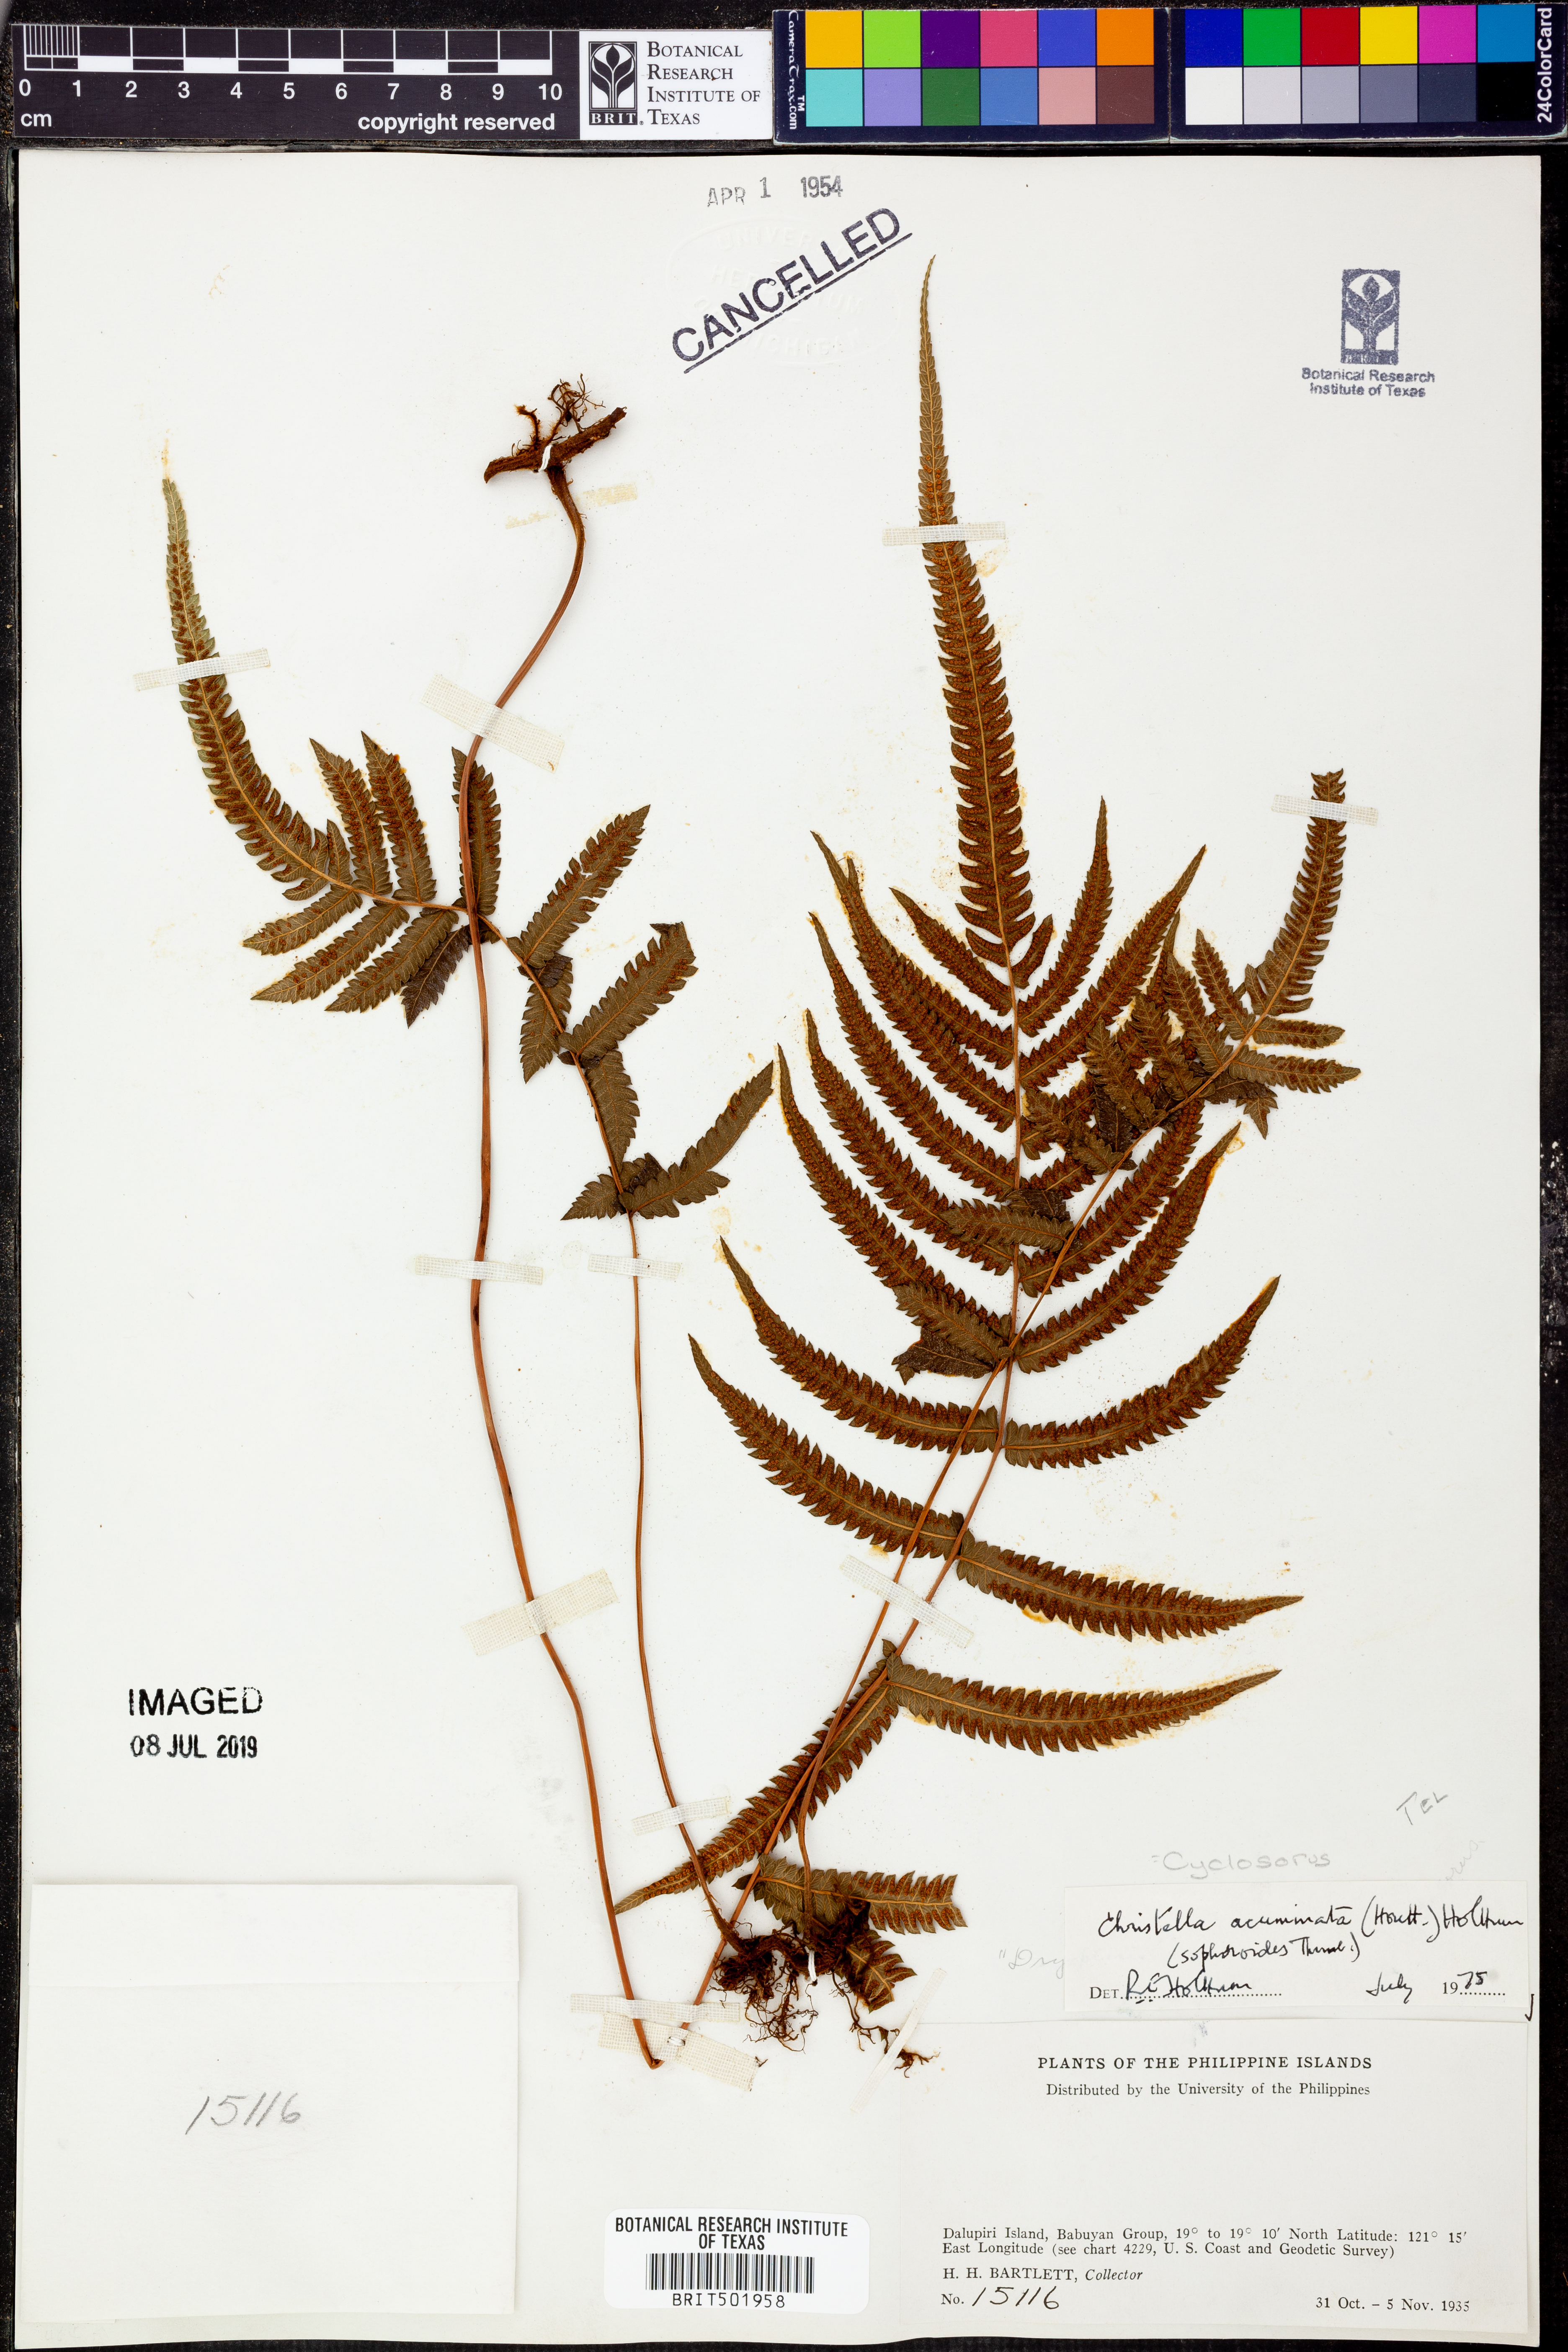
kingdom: Plantae
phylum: Tracheophyta
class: Polypodiopsida
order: Polypodiales
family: Thelypteridaceae
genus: Cyclosorus
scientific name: Cyclosorus acuminatus
